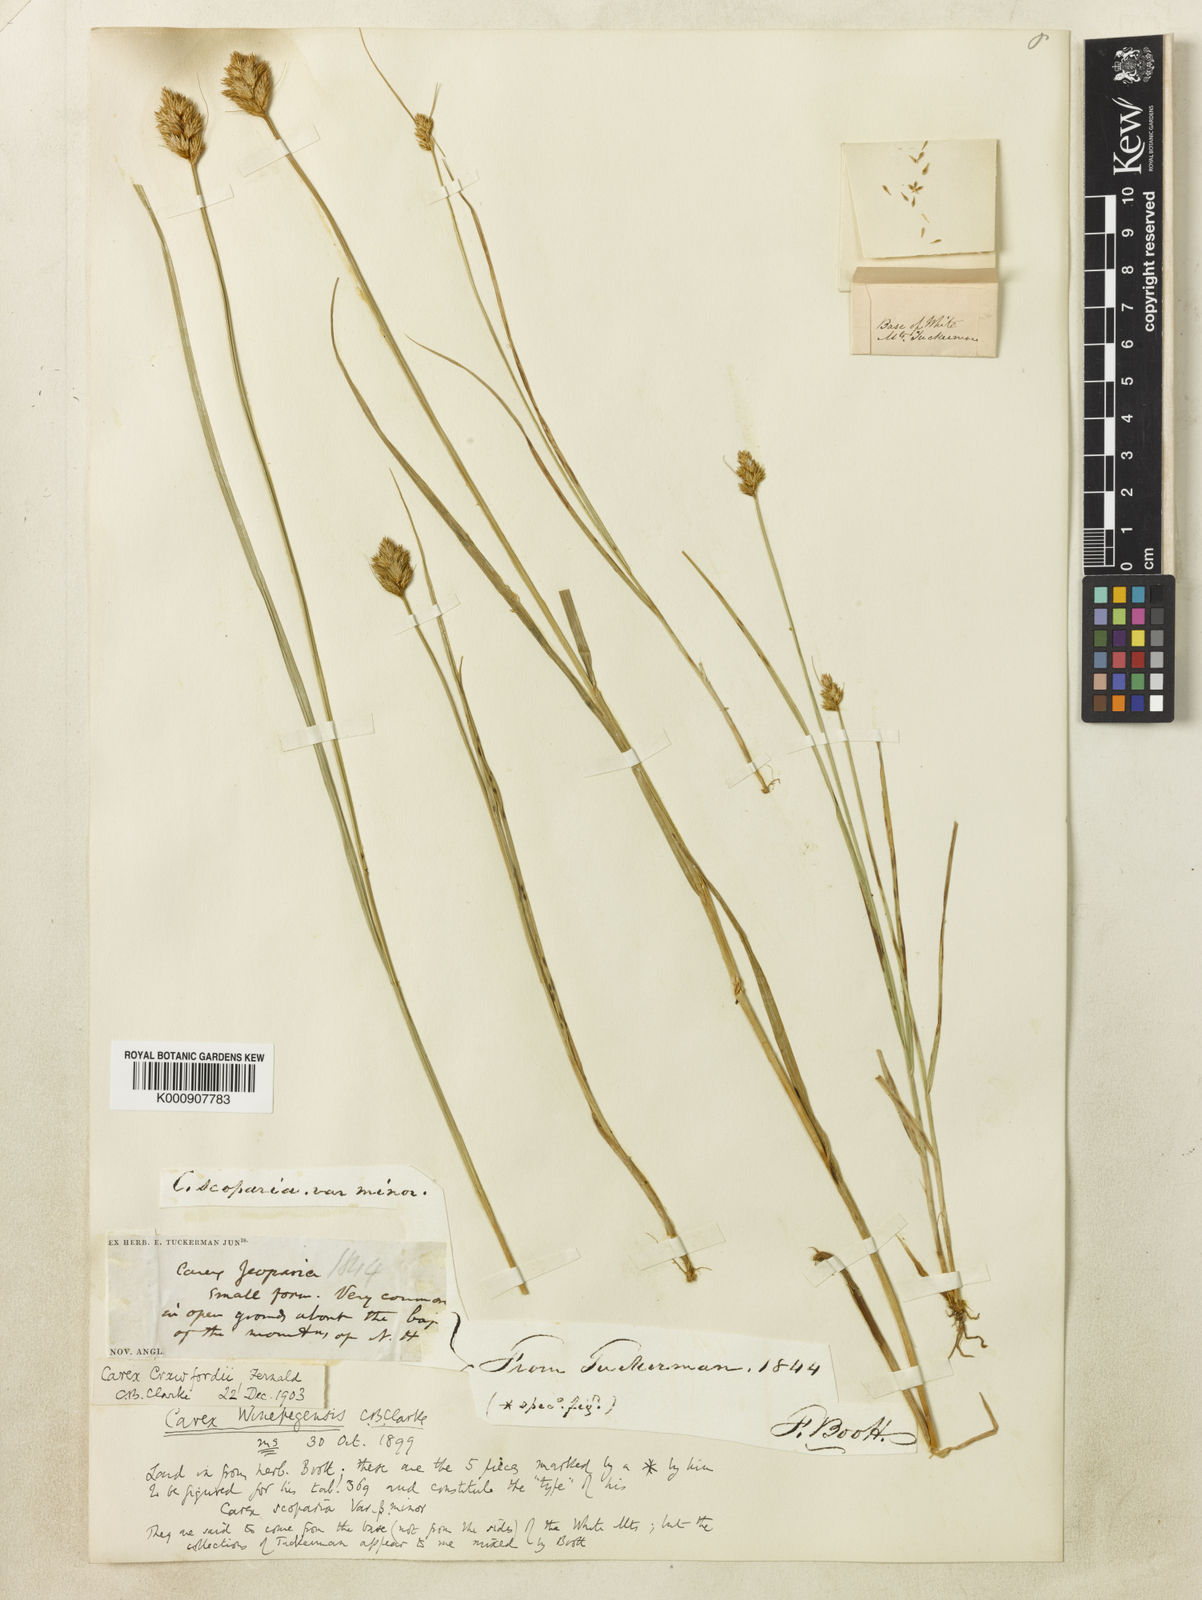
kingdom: Plantae
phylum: Tracheophyta
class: Liliopsida
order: Poales
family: Cyperaceae
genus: Carex
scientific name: Carex crawfordii
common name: Crawford's sedge
